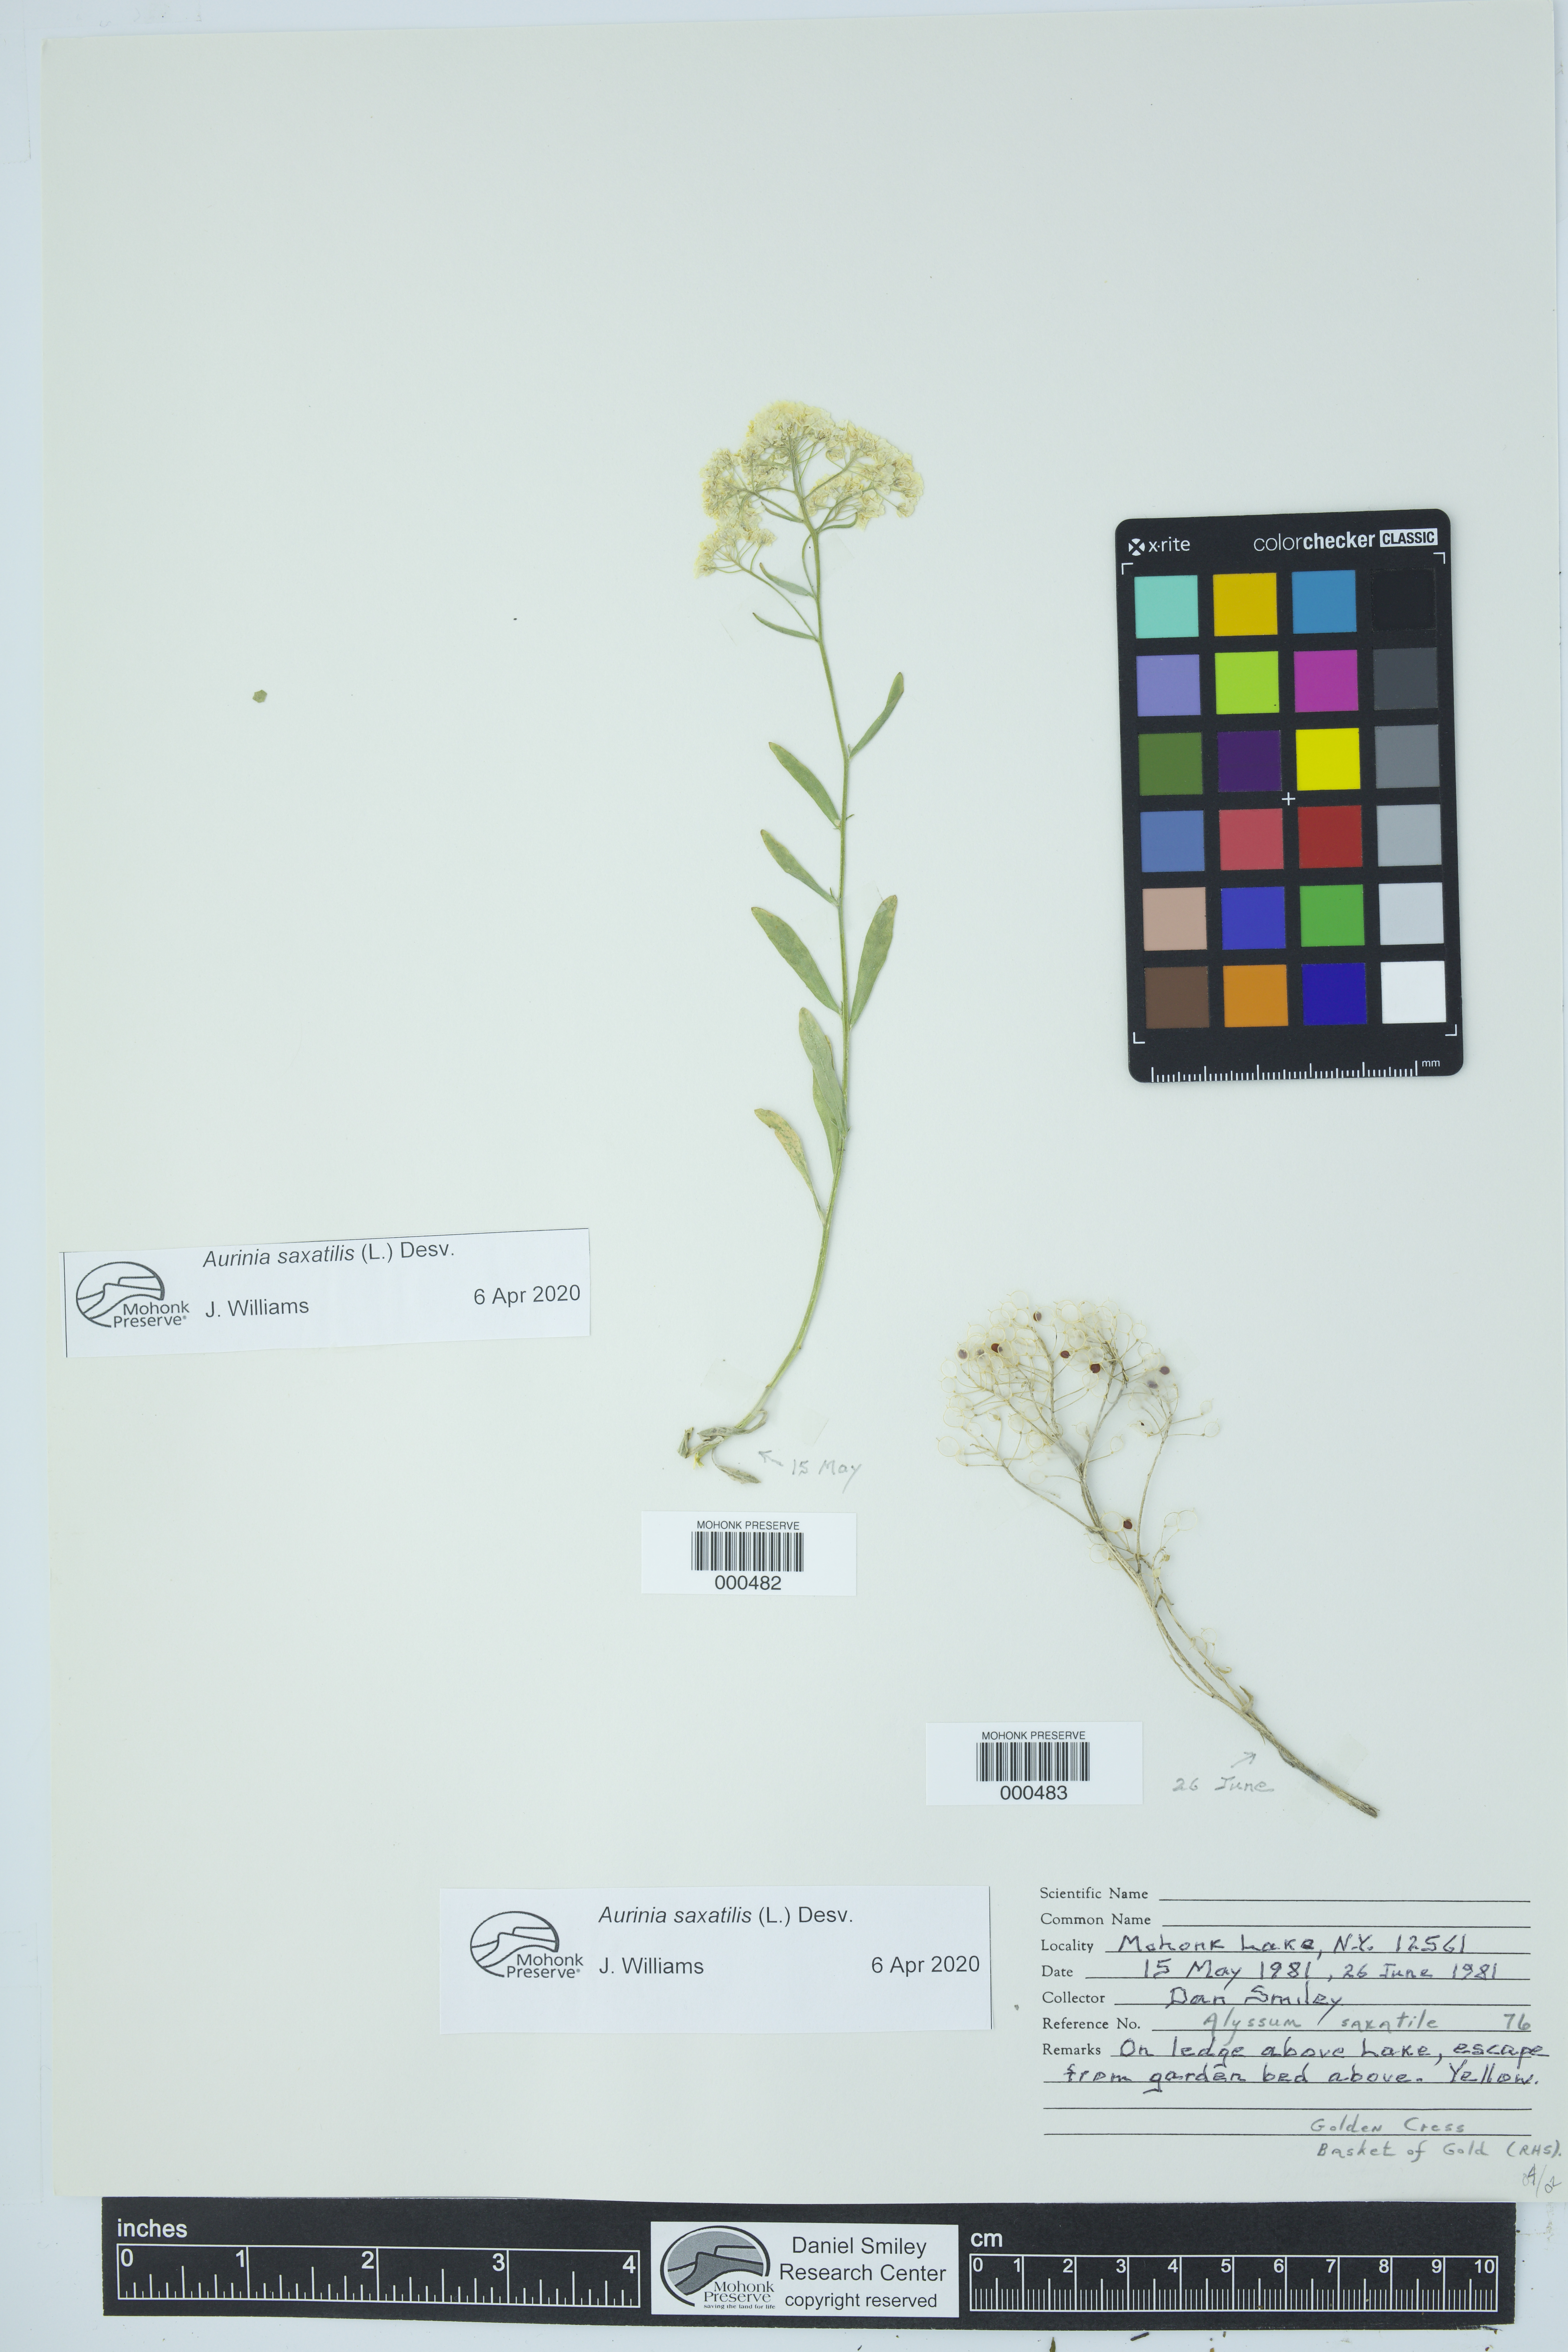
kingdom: Plantae
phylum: Tracheophyta
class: Magnoliopsida
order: Brassicales
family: Brassicaceae
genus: Aurinia
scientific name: Aurinia saxatilis
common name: Golden-tuft alyssum
